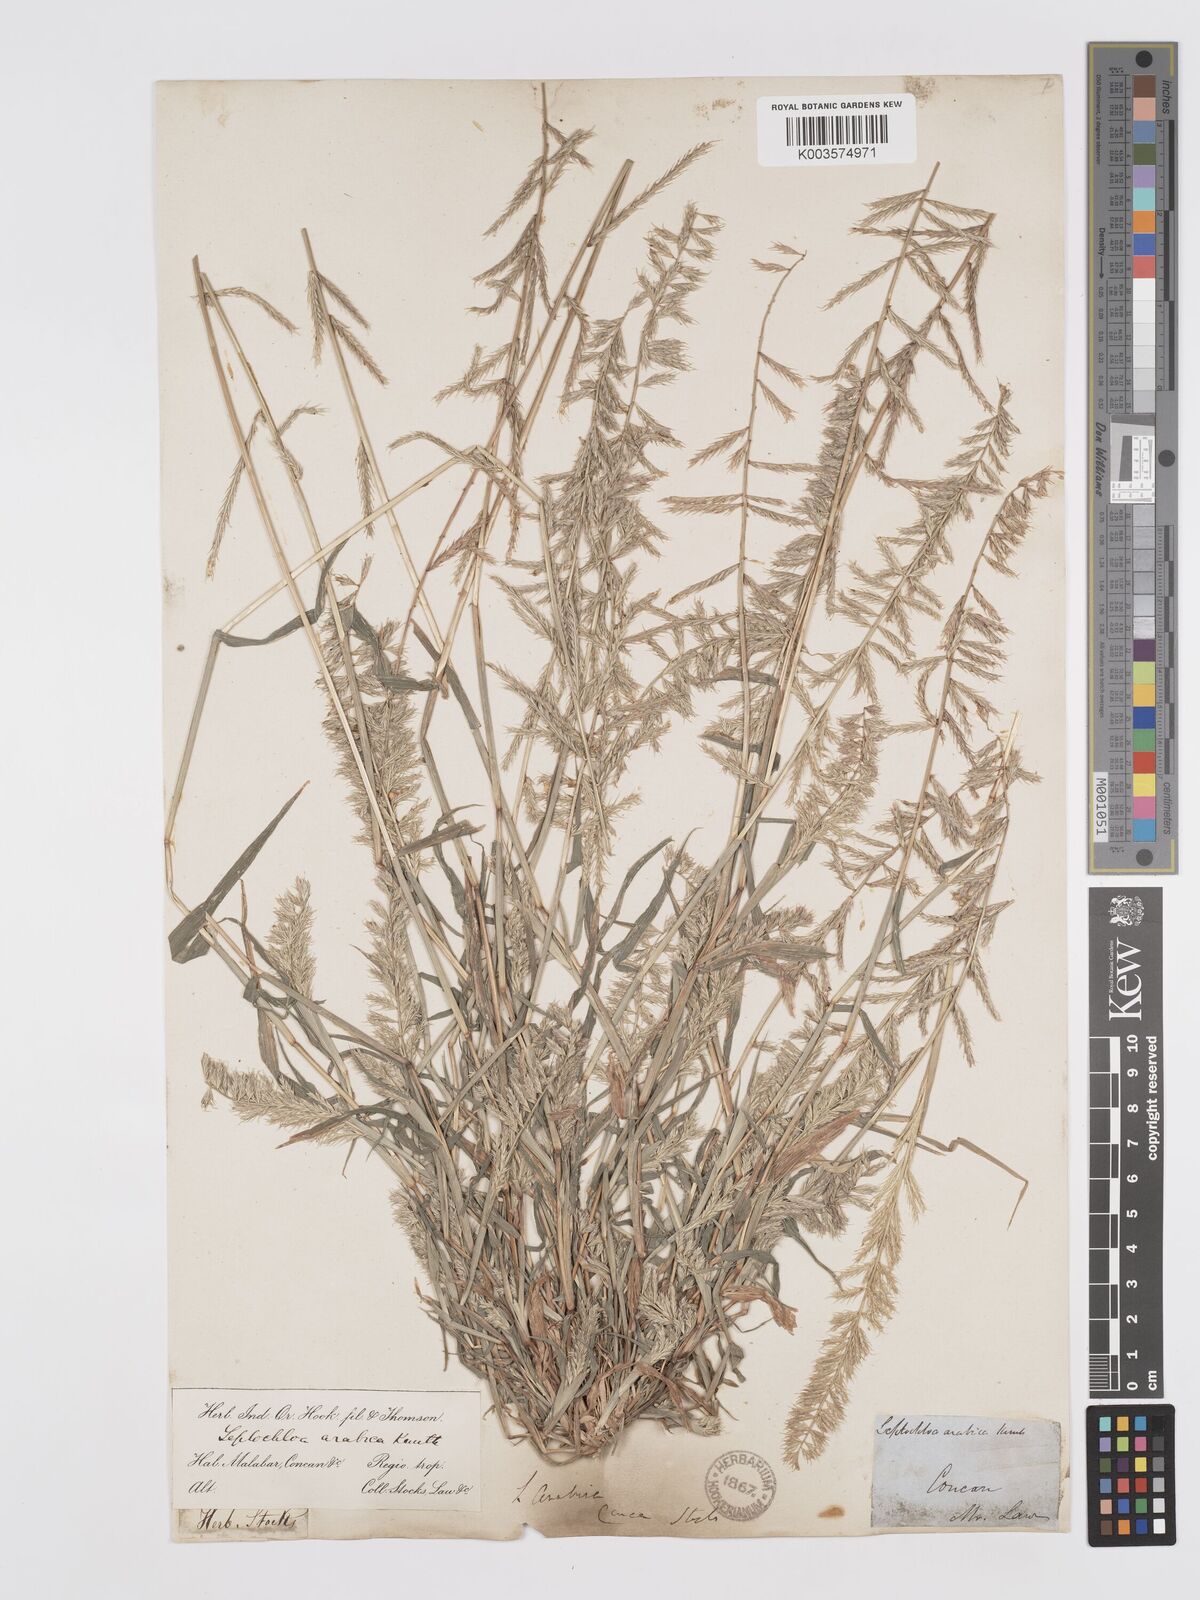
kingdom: Plantae
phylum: Tracheophyta
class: Liliopsida
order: Poales
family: Poaceae
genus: Dinebra
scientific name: Dinebra retroflexa
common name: Viper grass
